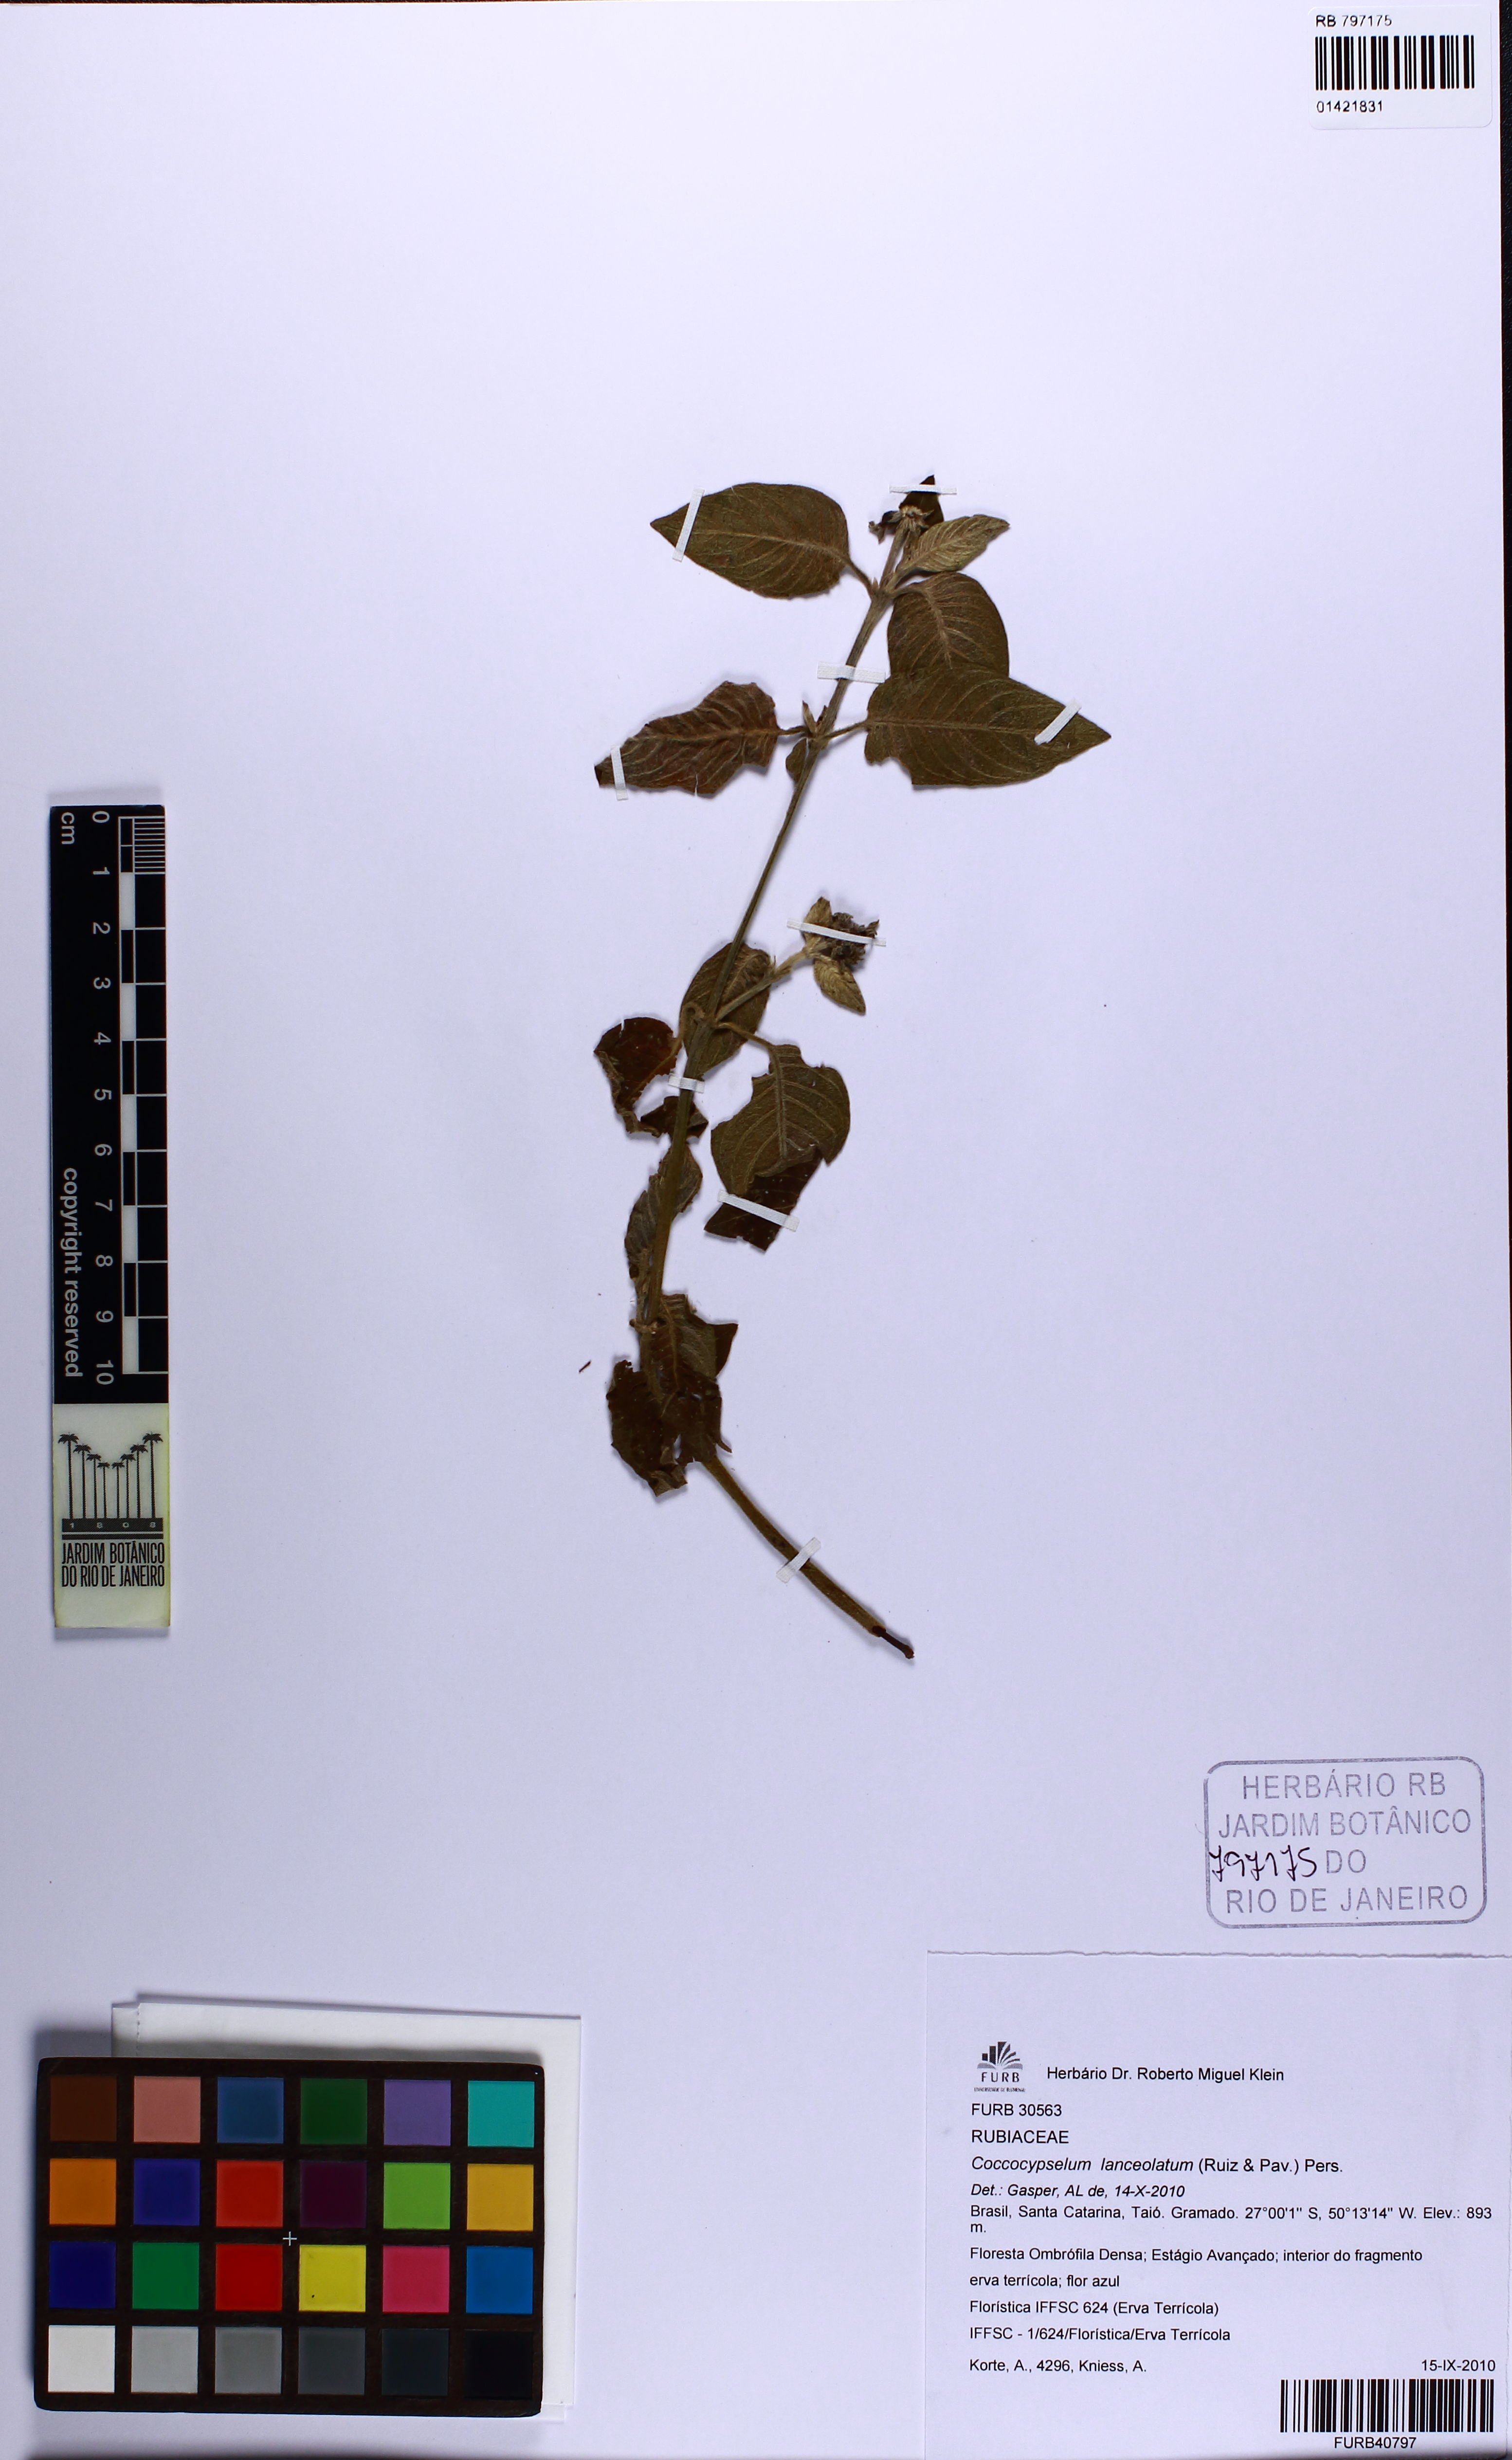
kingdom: Plantae
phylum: Tracheophyta
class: Magnoliopsida
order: Gentianales
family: Rubiaceae
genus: Coccocypselum
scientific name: Coccocypselum lanceolatum
